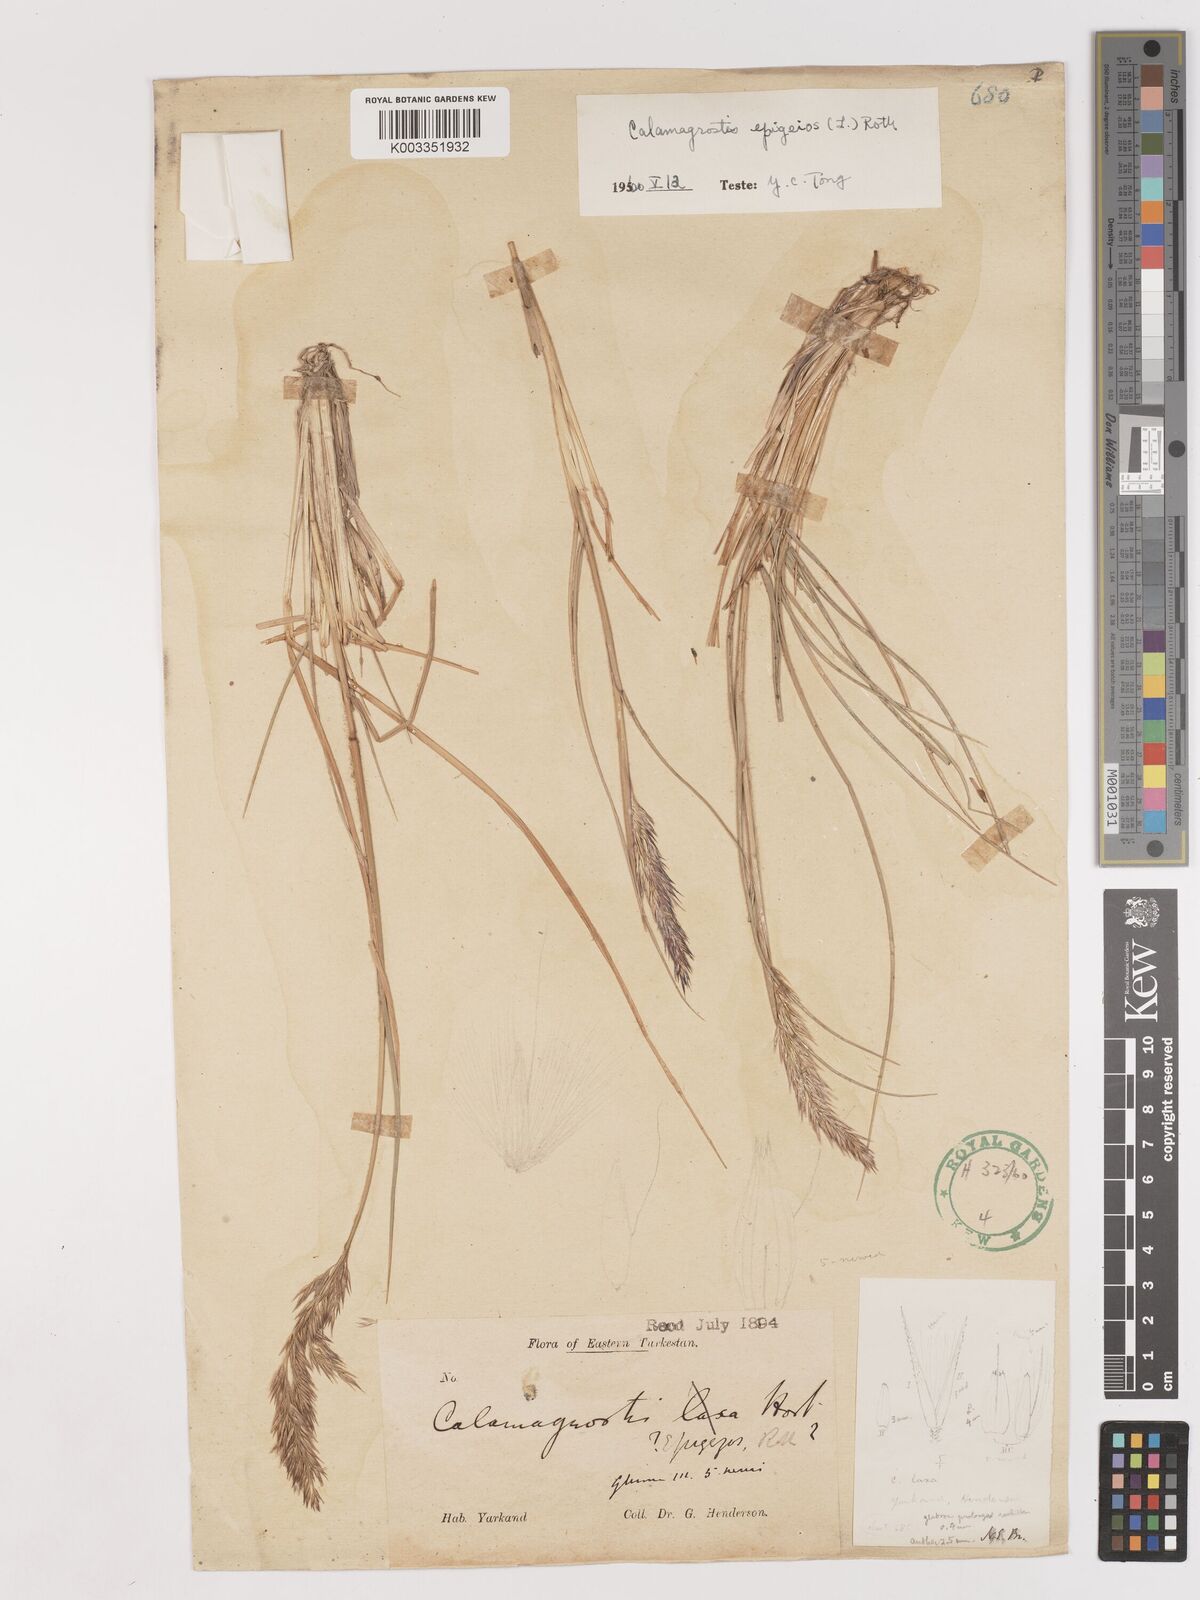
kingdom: Plantae
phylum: Tracheophyta
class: Liliopsida
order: Poales
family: Poaceae
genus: Calamagrostis
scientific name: Calamagrostis epigejos
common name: Wood small-reed
